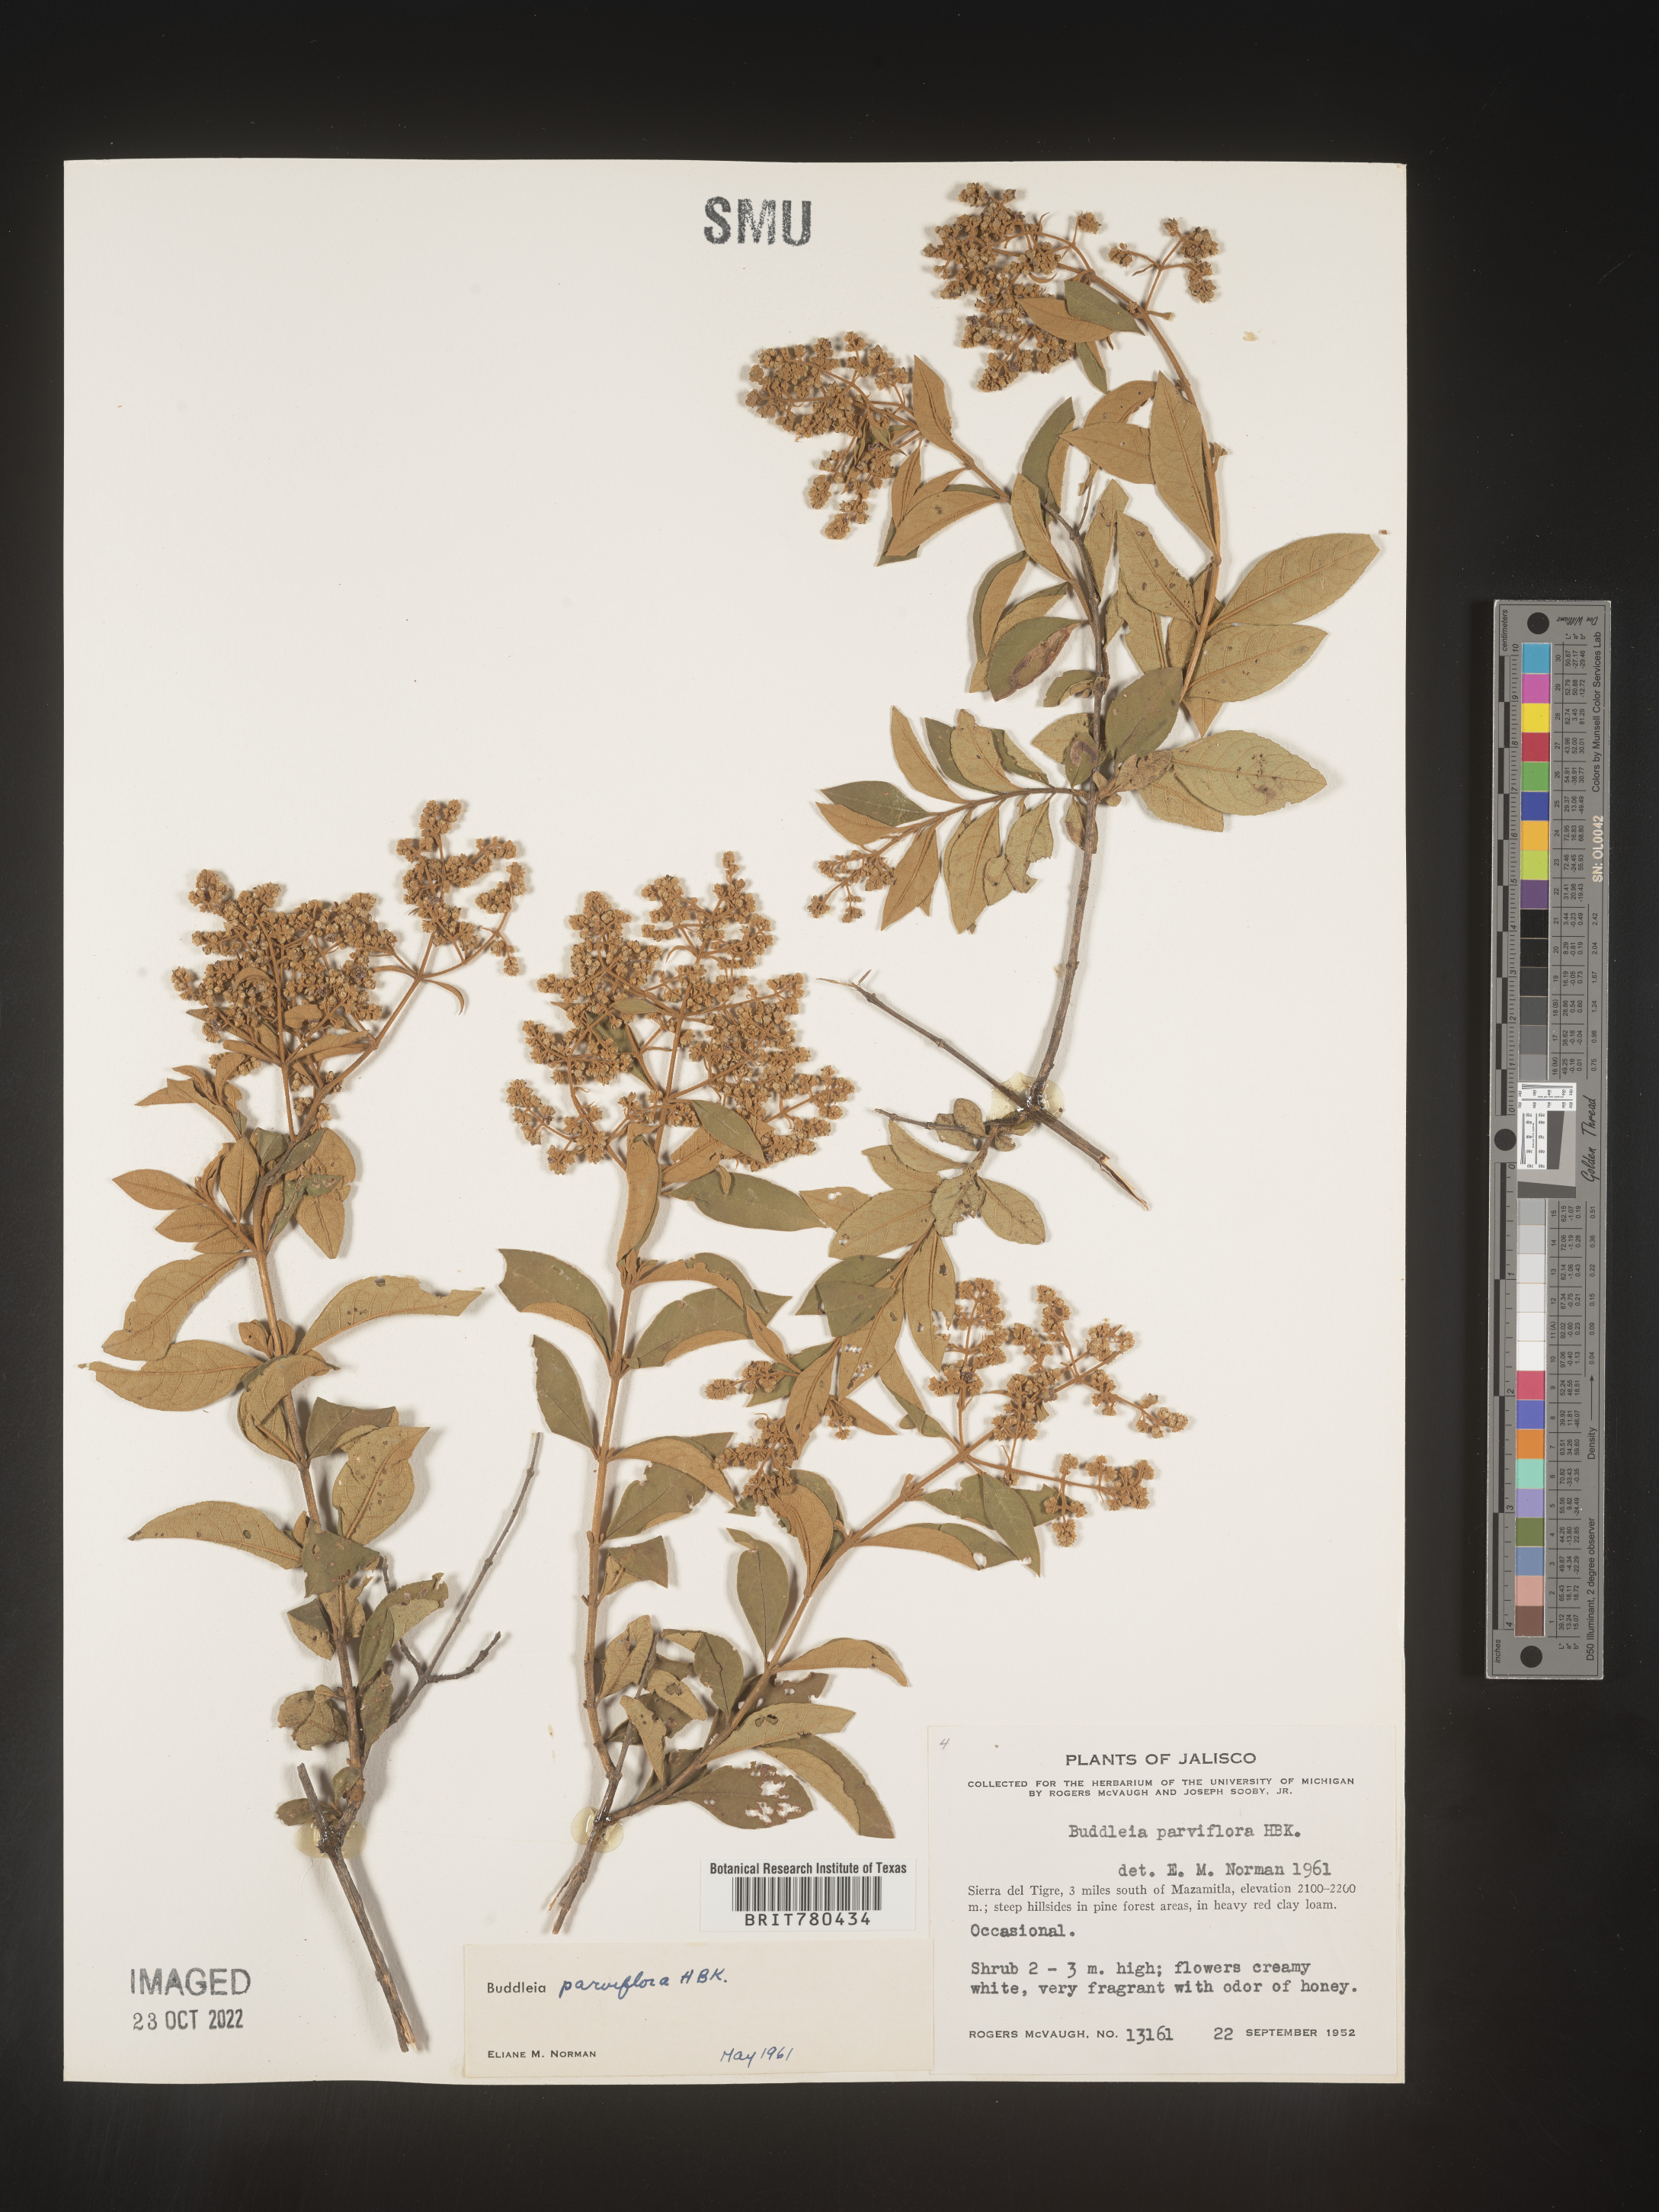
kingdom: Plantae
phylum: Tracheophyta
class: Magnoliopsida
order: Lamiales
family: Scrophulariaceae
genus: Buddleja
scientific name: Buddleja parviflora
